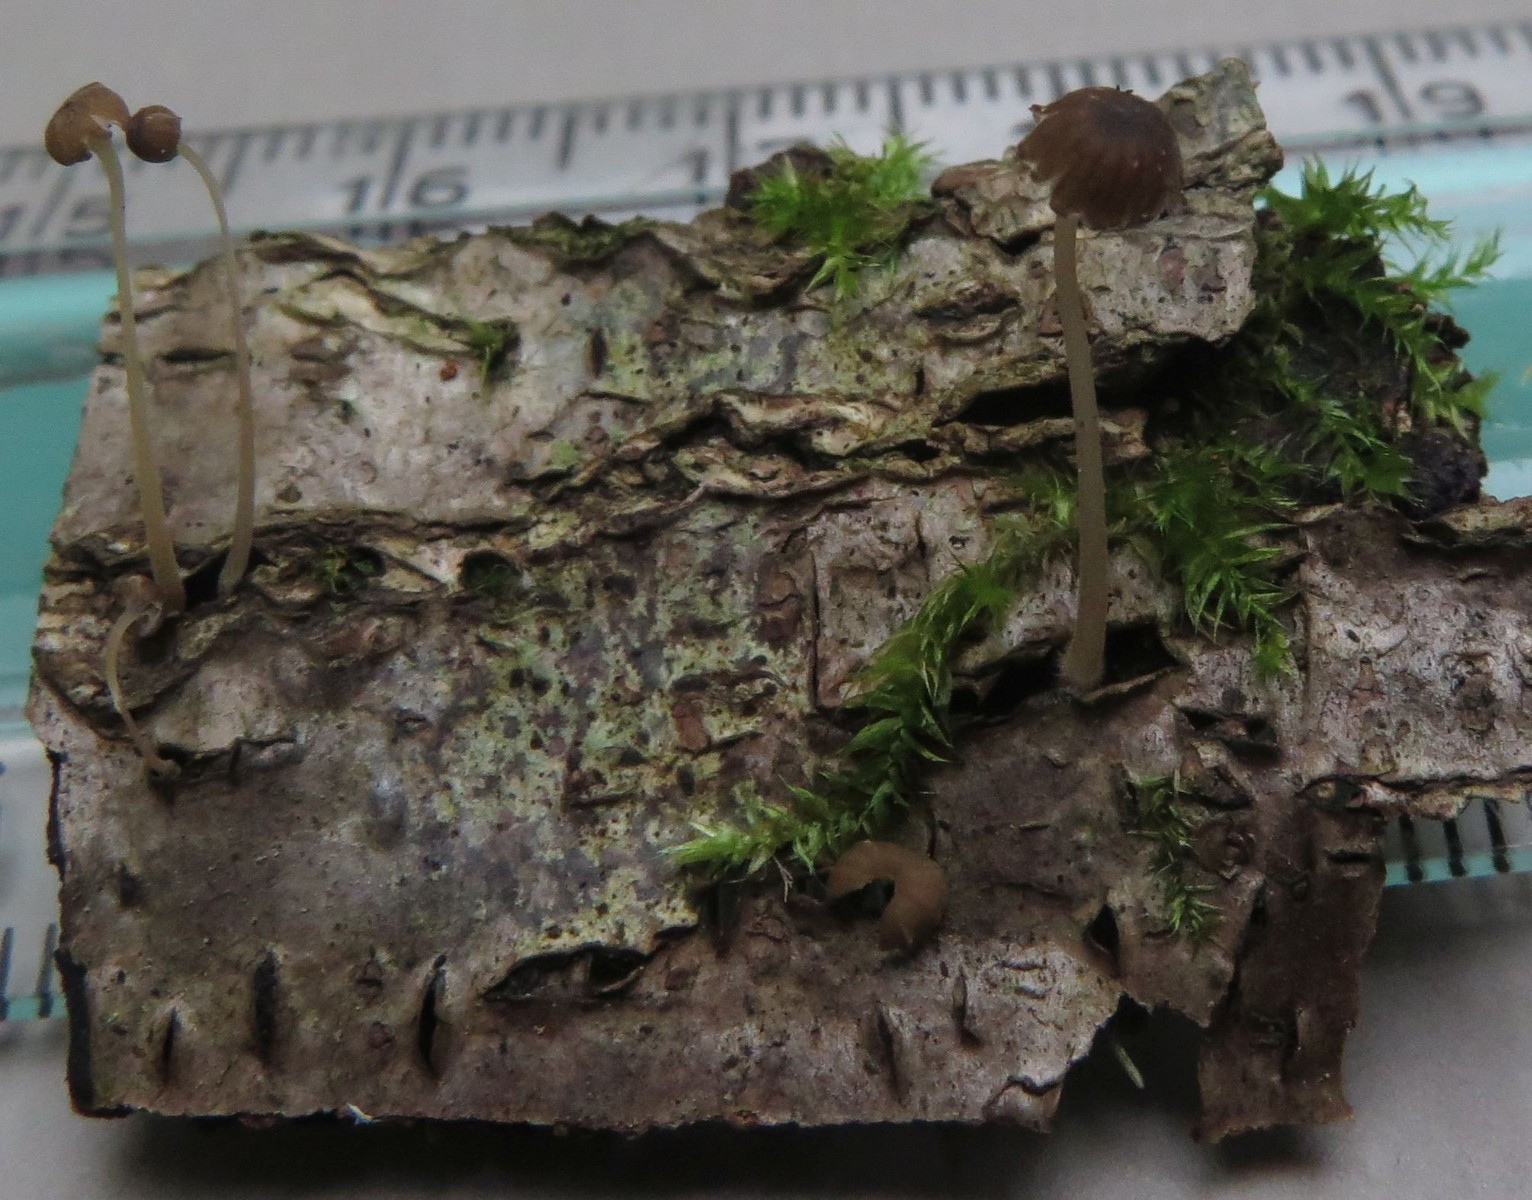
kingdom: Fungi
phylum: Basidiomycota
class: Agaricomycetes
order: Agaricales
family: Porotheleaceae
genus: Phloeomana
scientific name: Phloeomana speirea
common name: kvist-huesvamp
